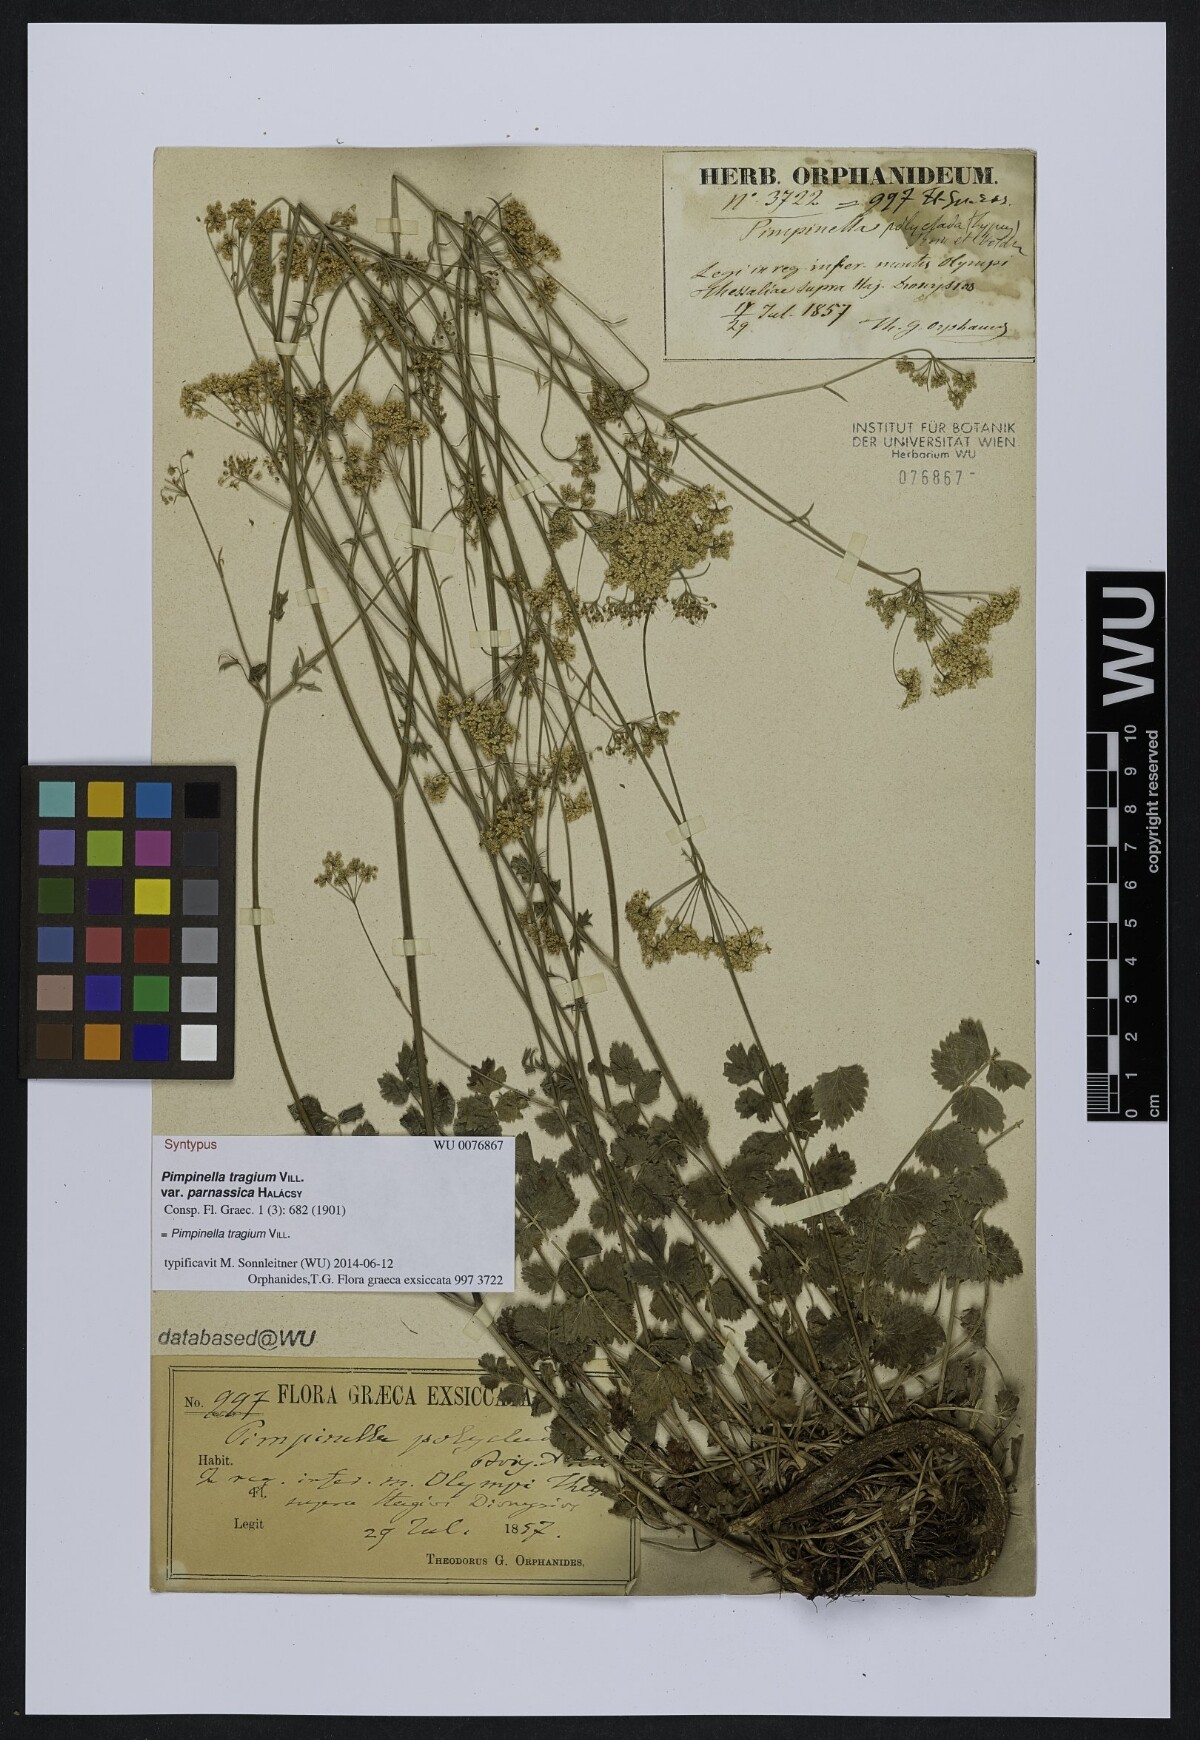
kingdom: Plantae
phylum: Tracheophyta
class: Magnoliopsida
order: Apiales
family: Apiaceae
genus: Pimpinella
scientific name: Pimpinella tragium
